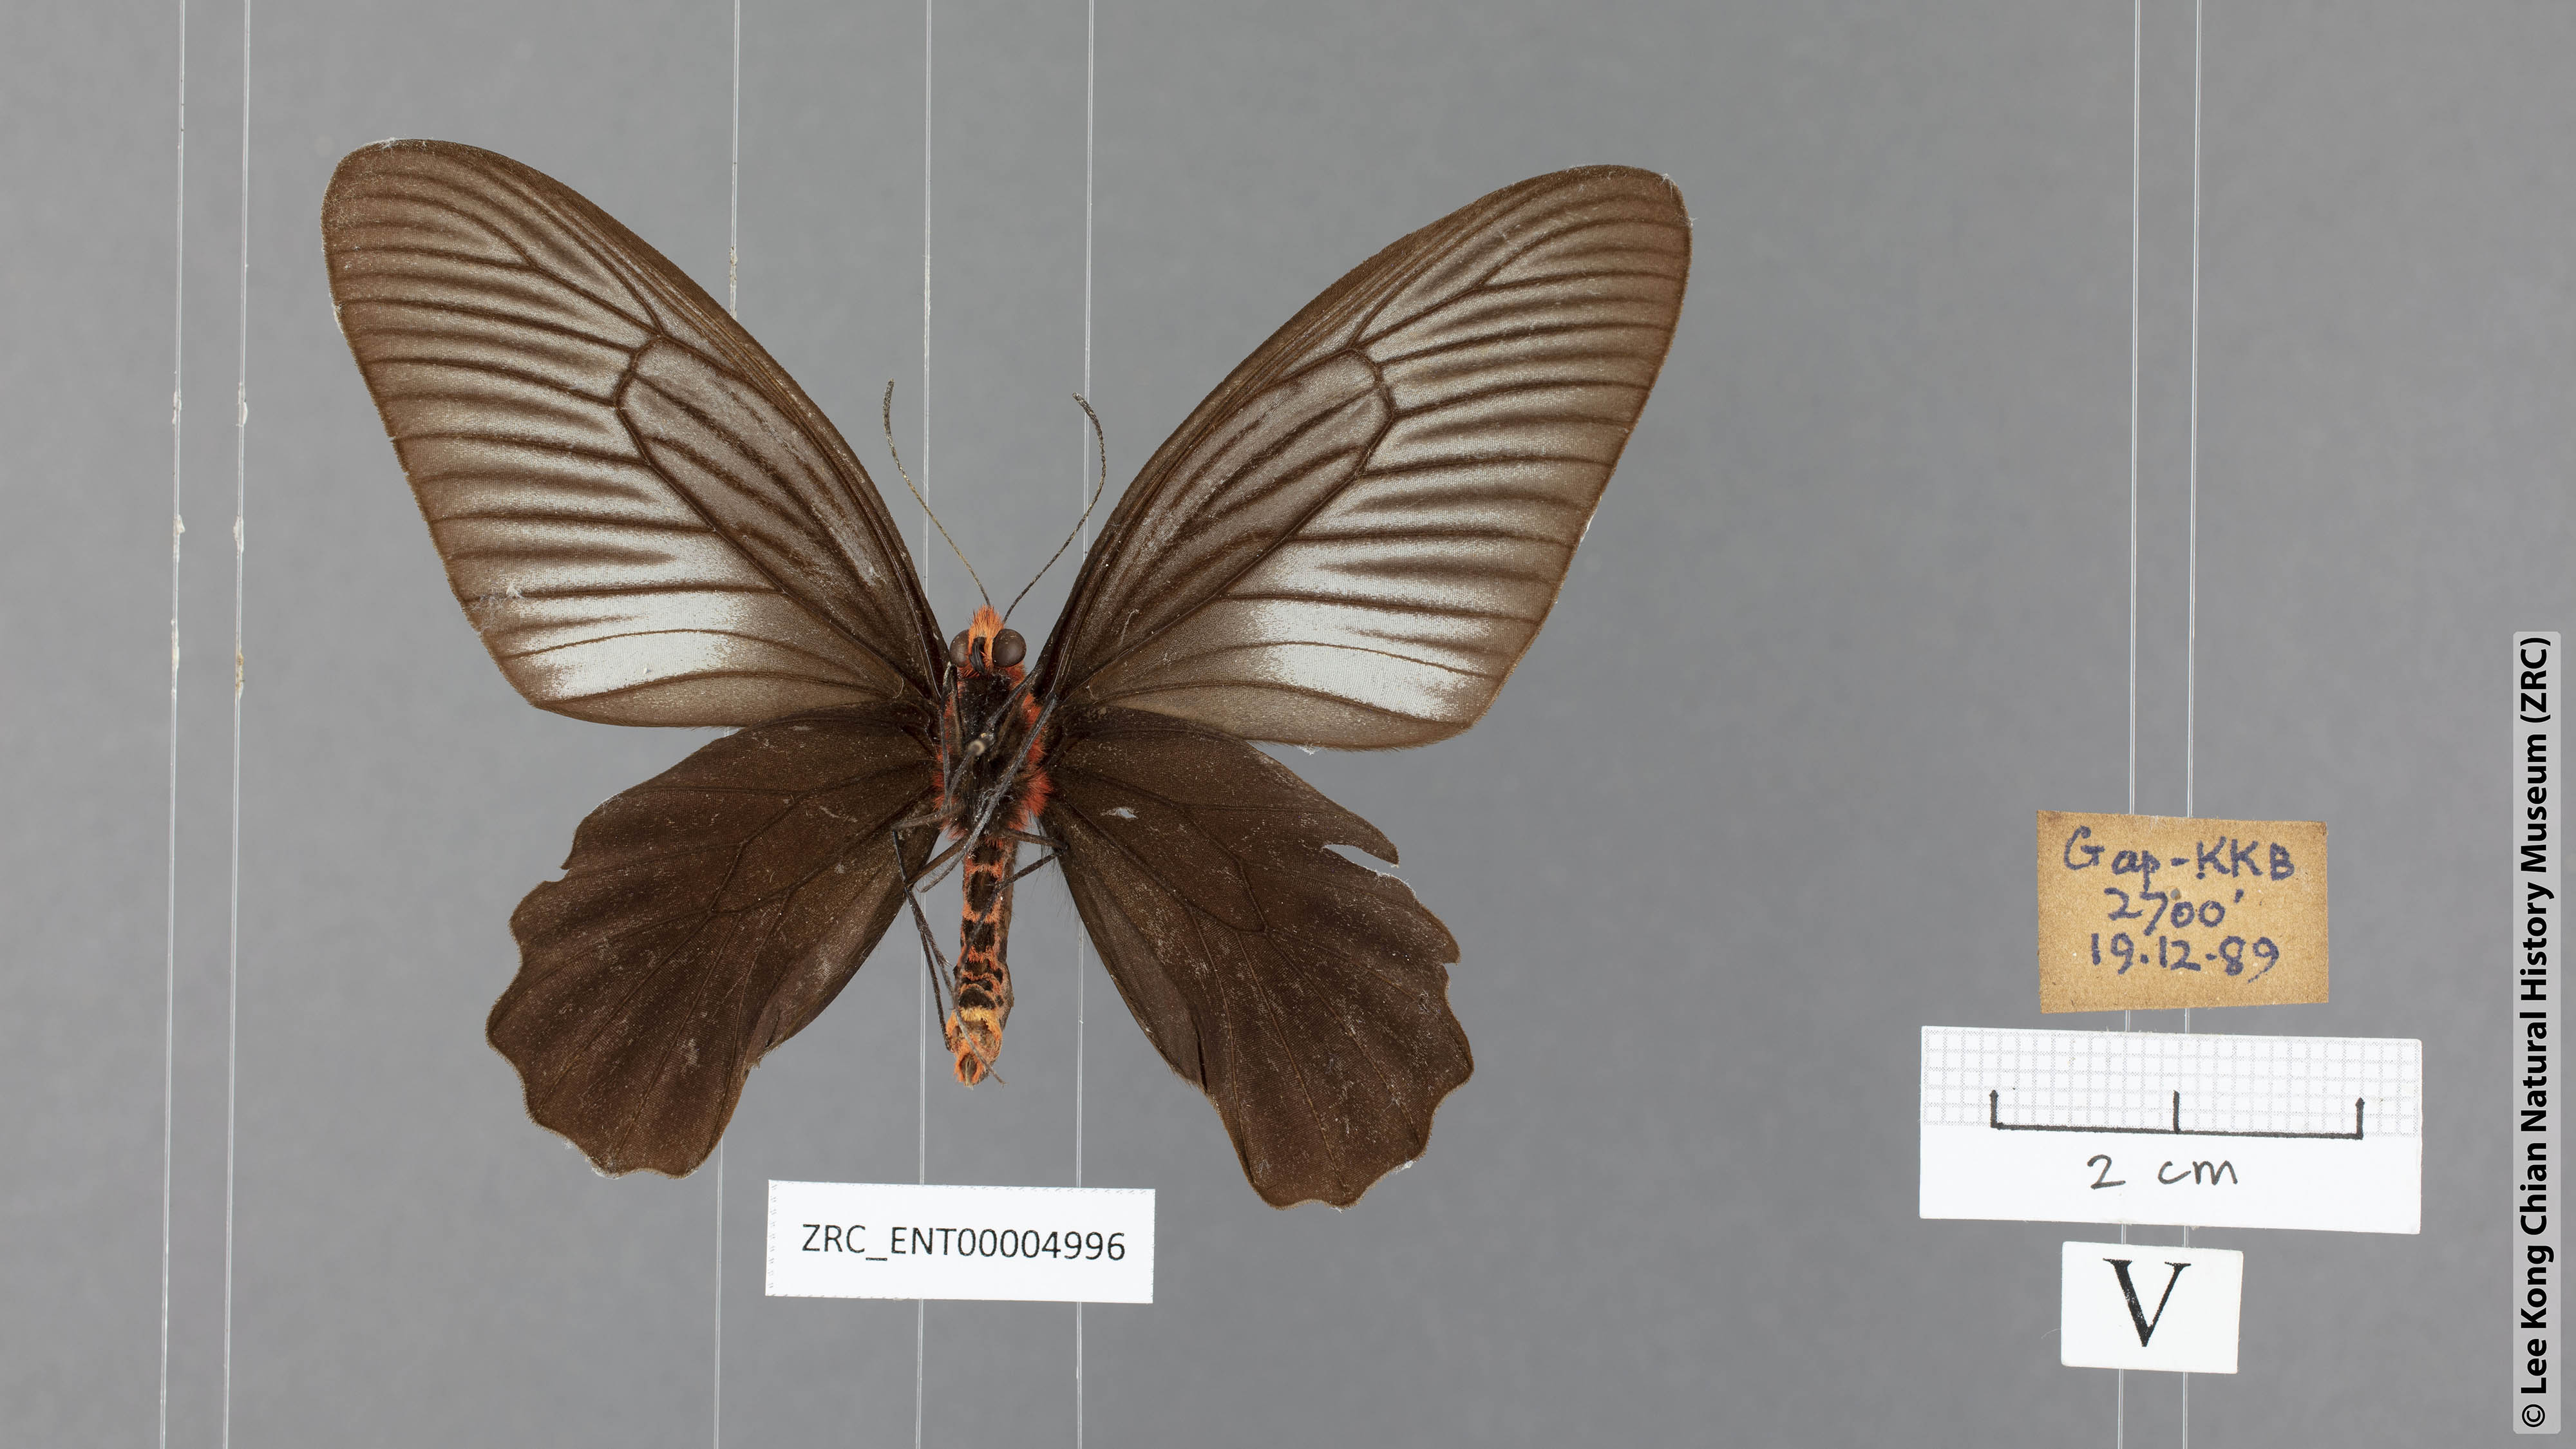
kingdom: Animalia
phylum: Arthropoda
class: Insecta
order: Lepidoptera
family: Papilionidae
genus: Atrophaneura
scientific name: Atrophaneura varuna
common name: Common batwing
